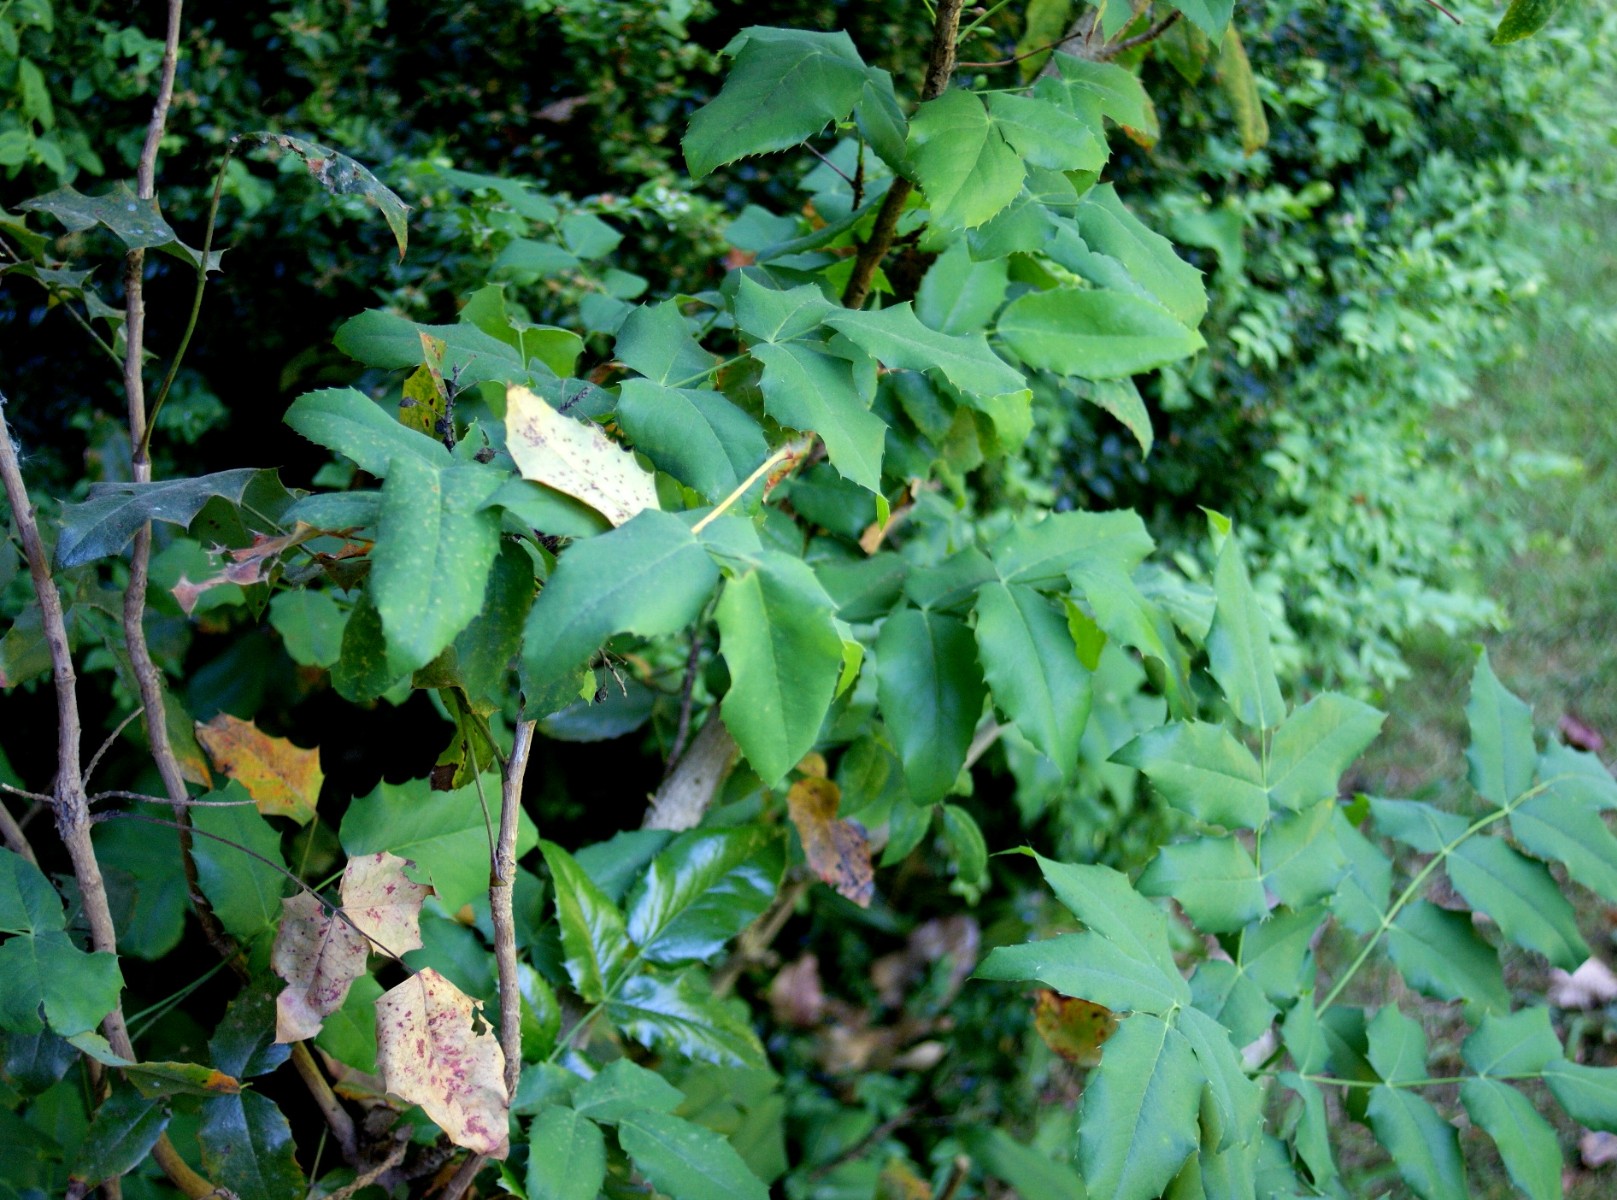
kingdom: Fungi
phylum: Basidiomycota
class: Pucciniomycetes
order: Pucciniales
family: Pucciniaceae
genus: Cumminsiella
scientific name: Cumminsiella mirabilissima
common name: mahonierust
